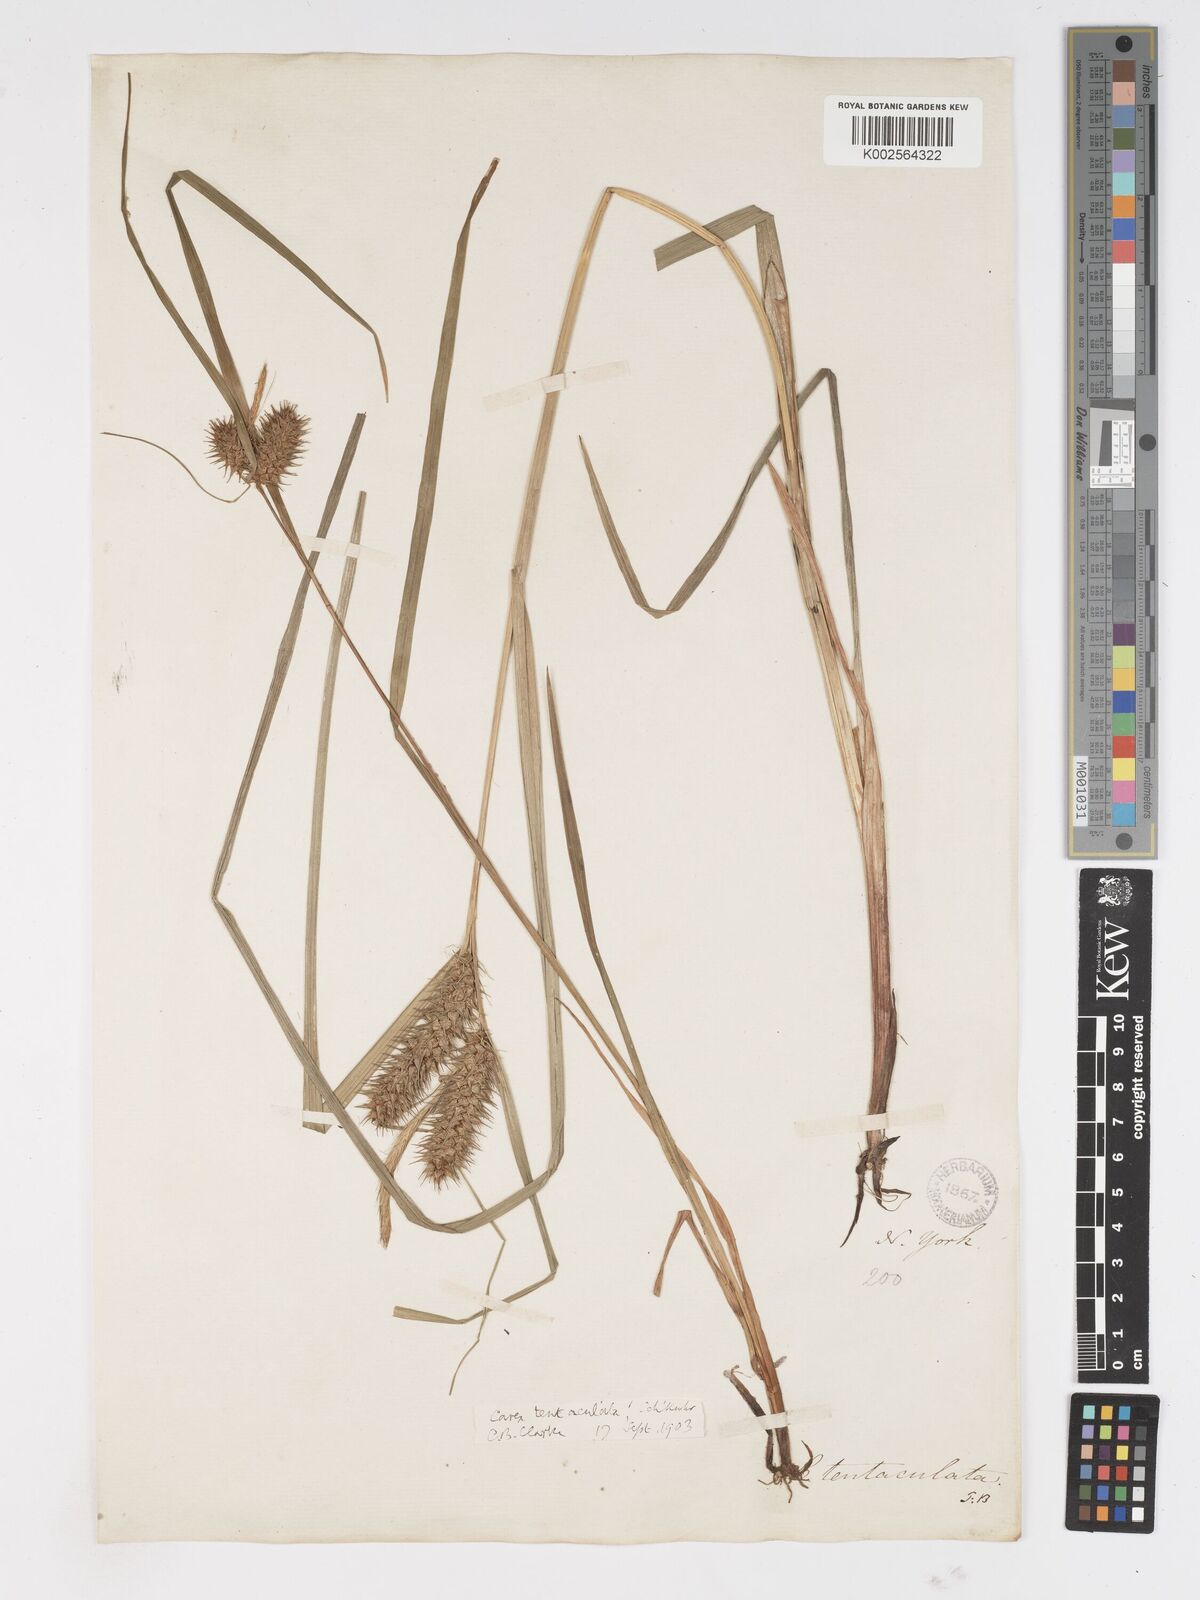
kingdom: Plantae
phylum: Tracheophyta
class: Liliopsida
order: Poales
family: Cyperaceae
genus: Carex
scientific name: Carex lurida
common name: Sallow sedge
